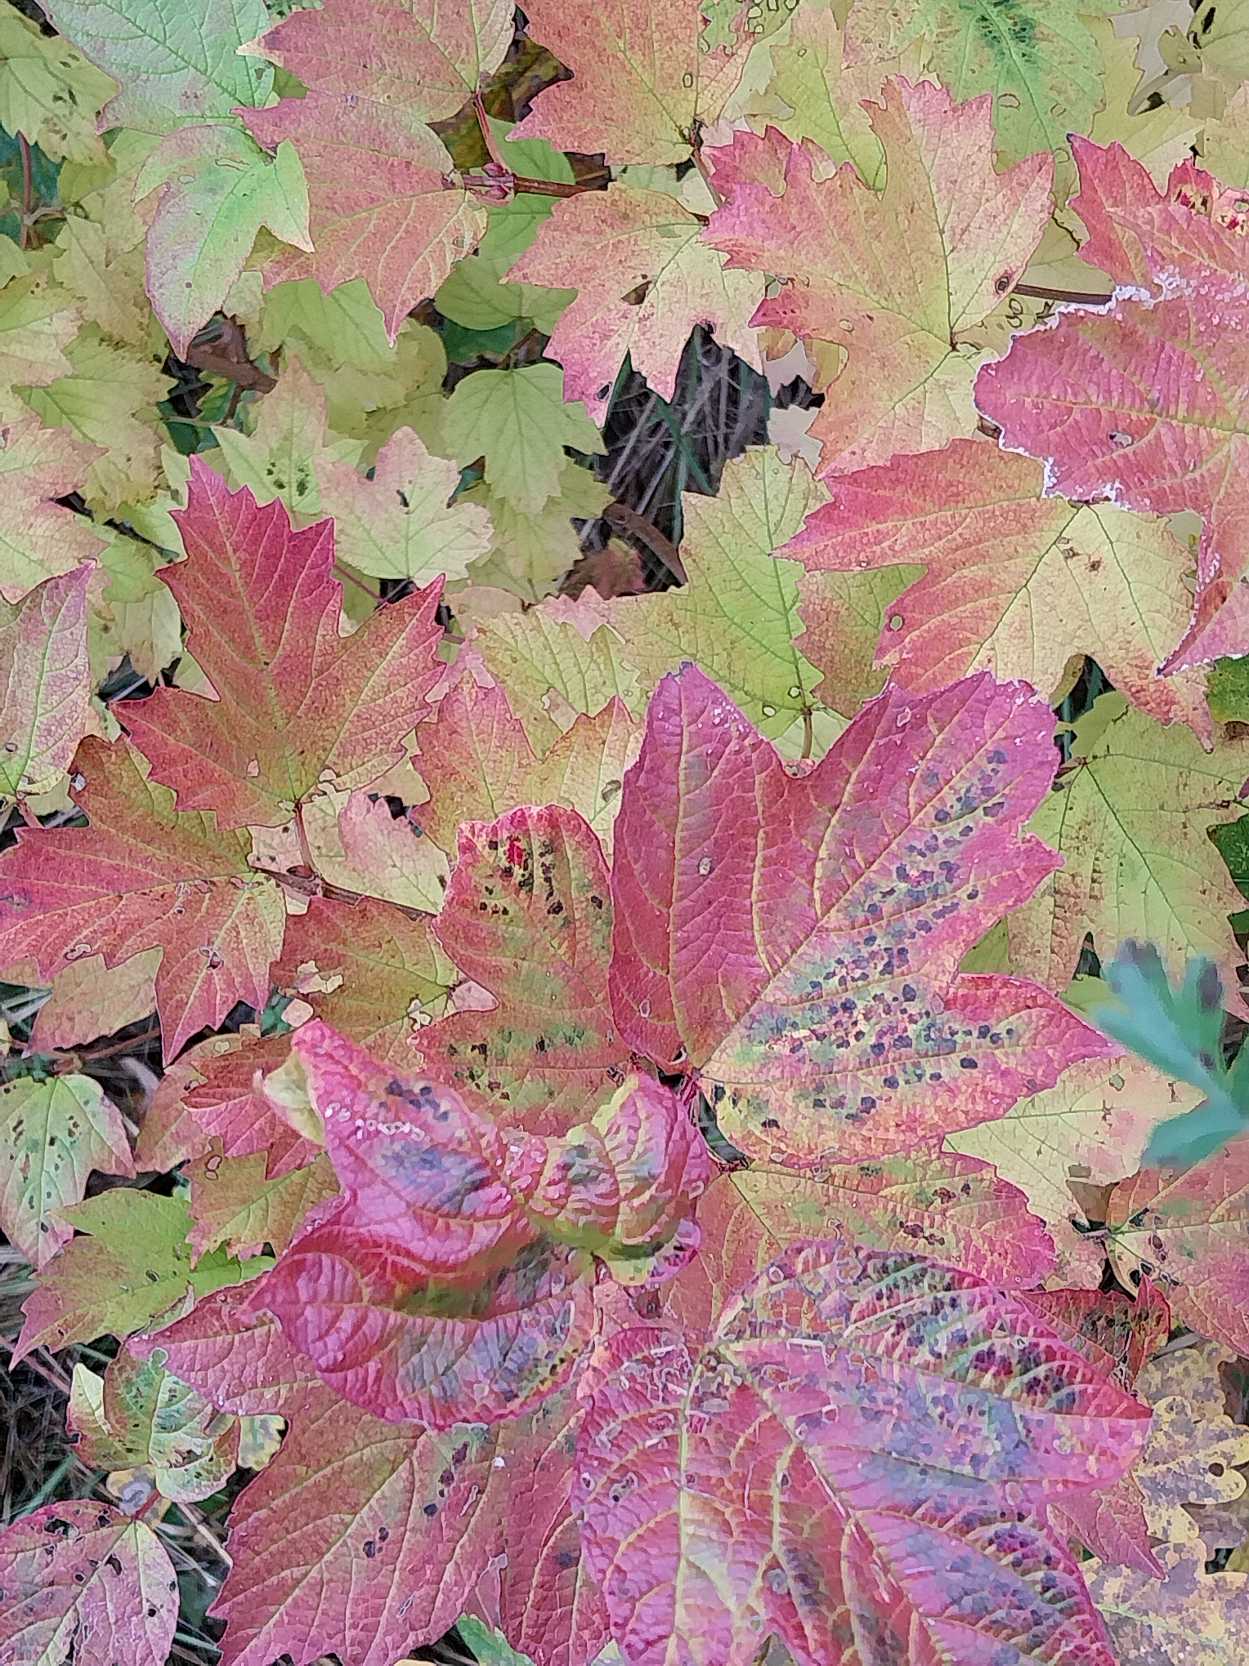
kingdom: Plantae
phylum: Tracheophyta
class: Magnoliopsida
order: Dipsacales
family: Viburnaceae
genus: Viburnum
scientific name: Viburnum opulus
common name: Kvalkved
